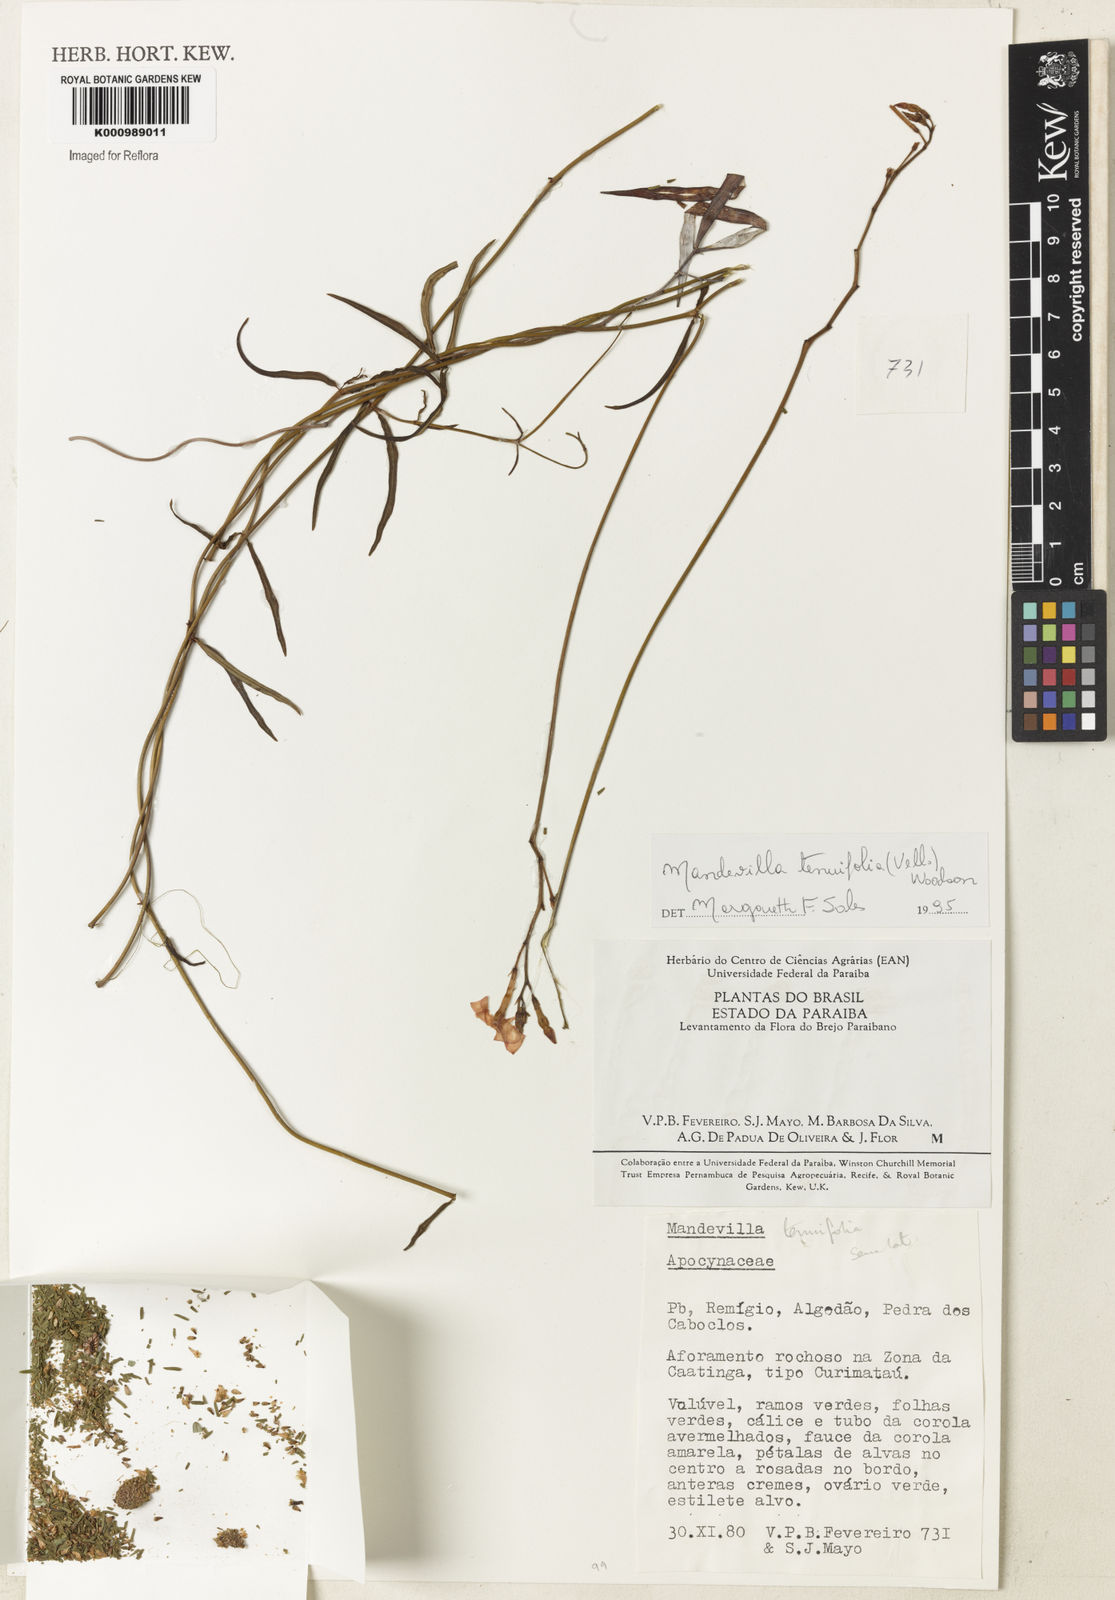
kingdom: Plantae
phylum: Tracheophyta
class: Magnoliopsida
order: Gentianales
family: Apocynaceae
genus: Mandevilla
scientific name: Mandevilla tenuifolia
